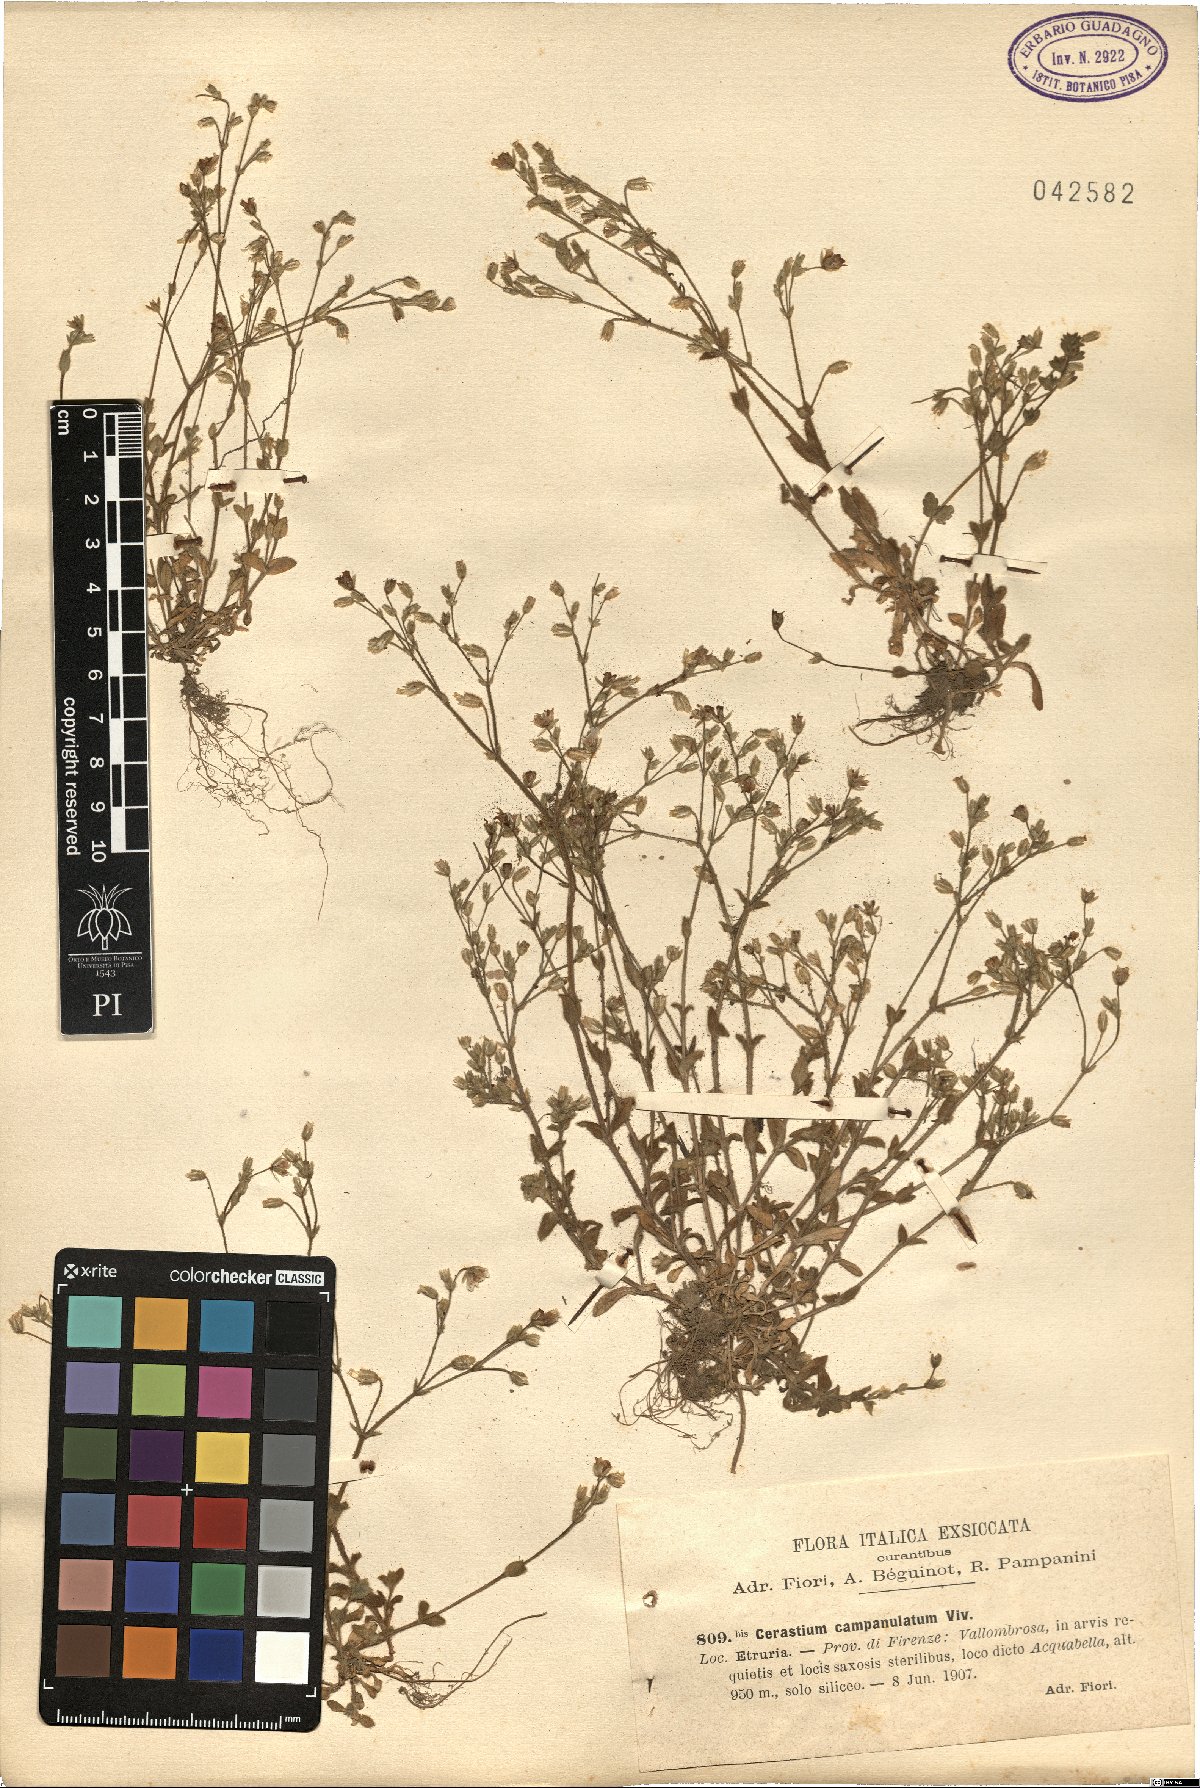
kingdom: Plantae
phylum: Tracheophyta
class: Magnoliopsida
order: Caryophyllales
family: Caryophyllaceae
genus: Cerastium
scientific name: Cerastium ligusticum
